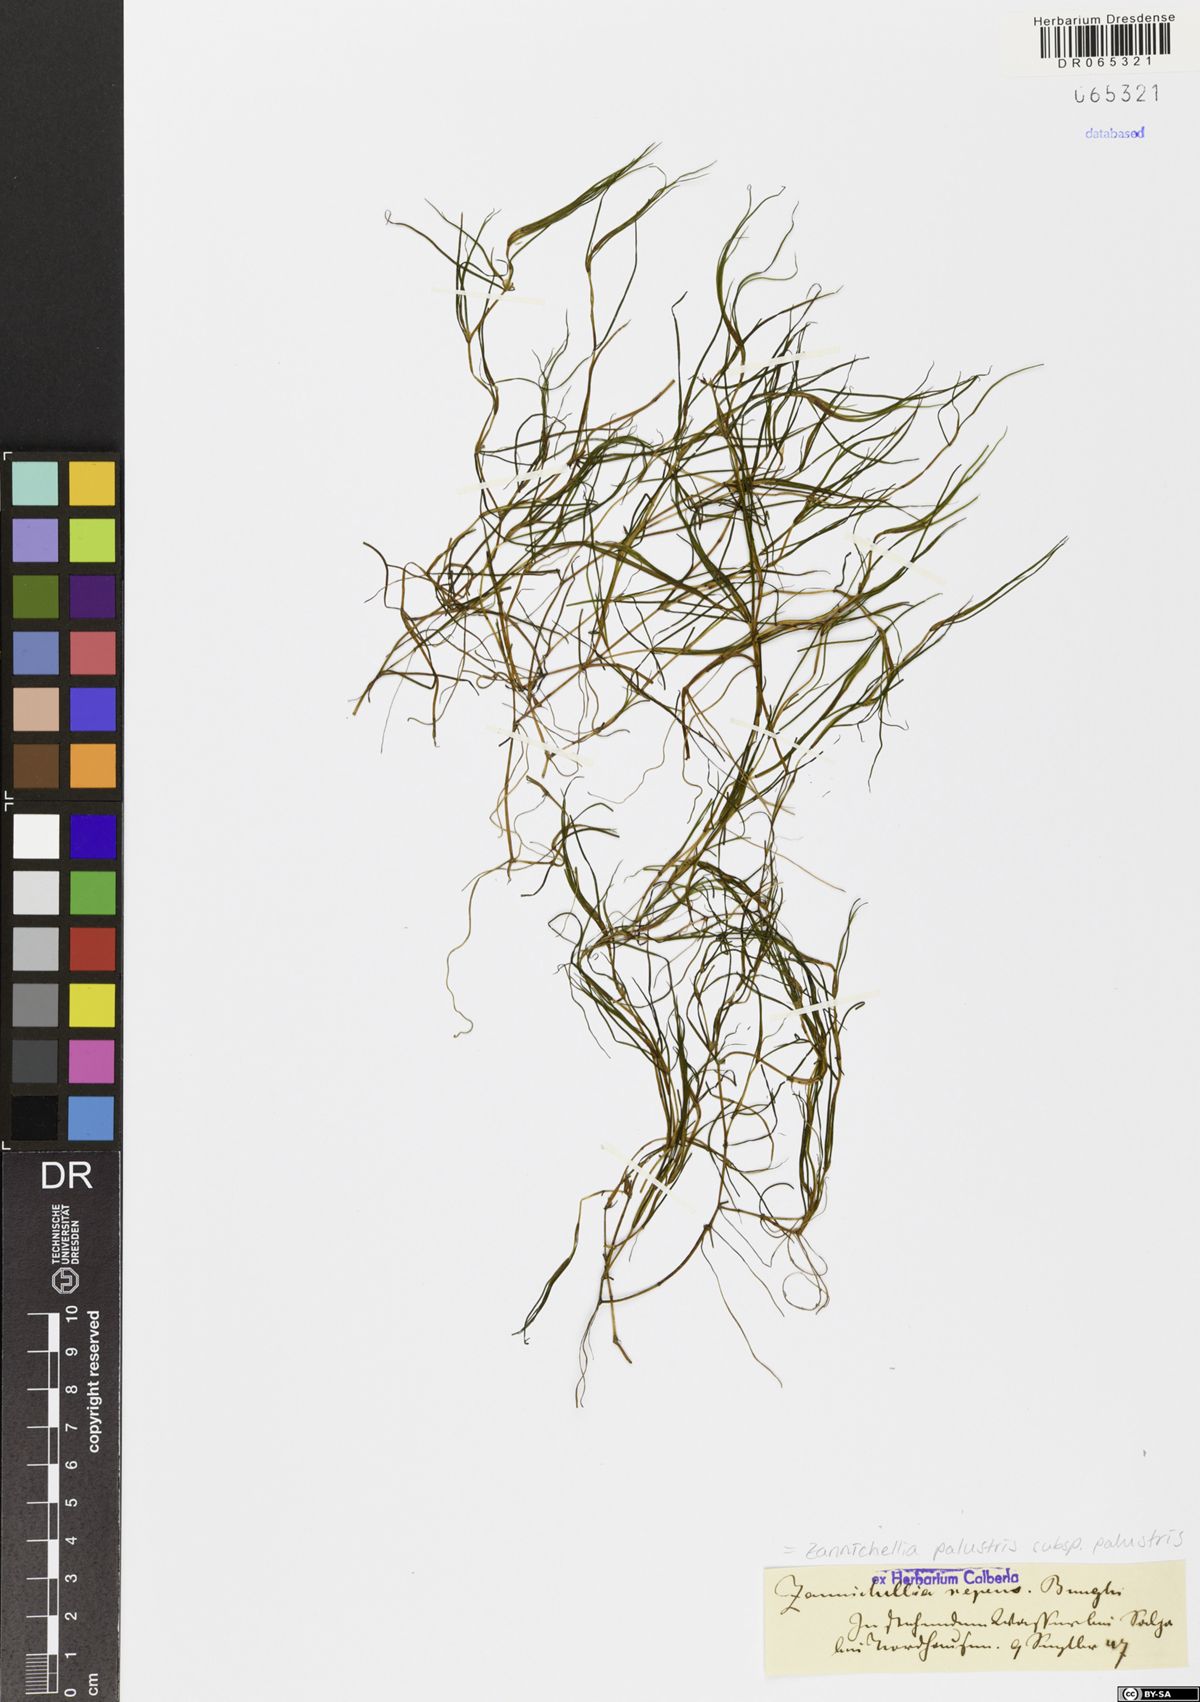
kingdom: Plantae
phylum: Tracheophyta
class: Liliopsida
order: Alismatales
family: Potamogetonaceae
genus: Zannichellia
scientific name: Zannichellia palustris
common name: Horned pondweed
